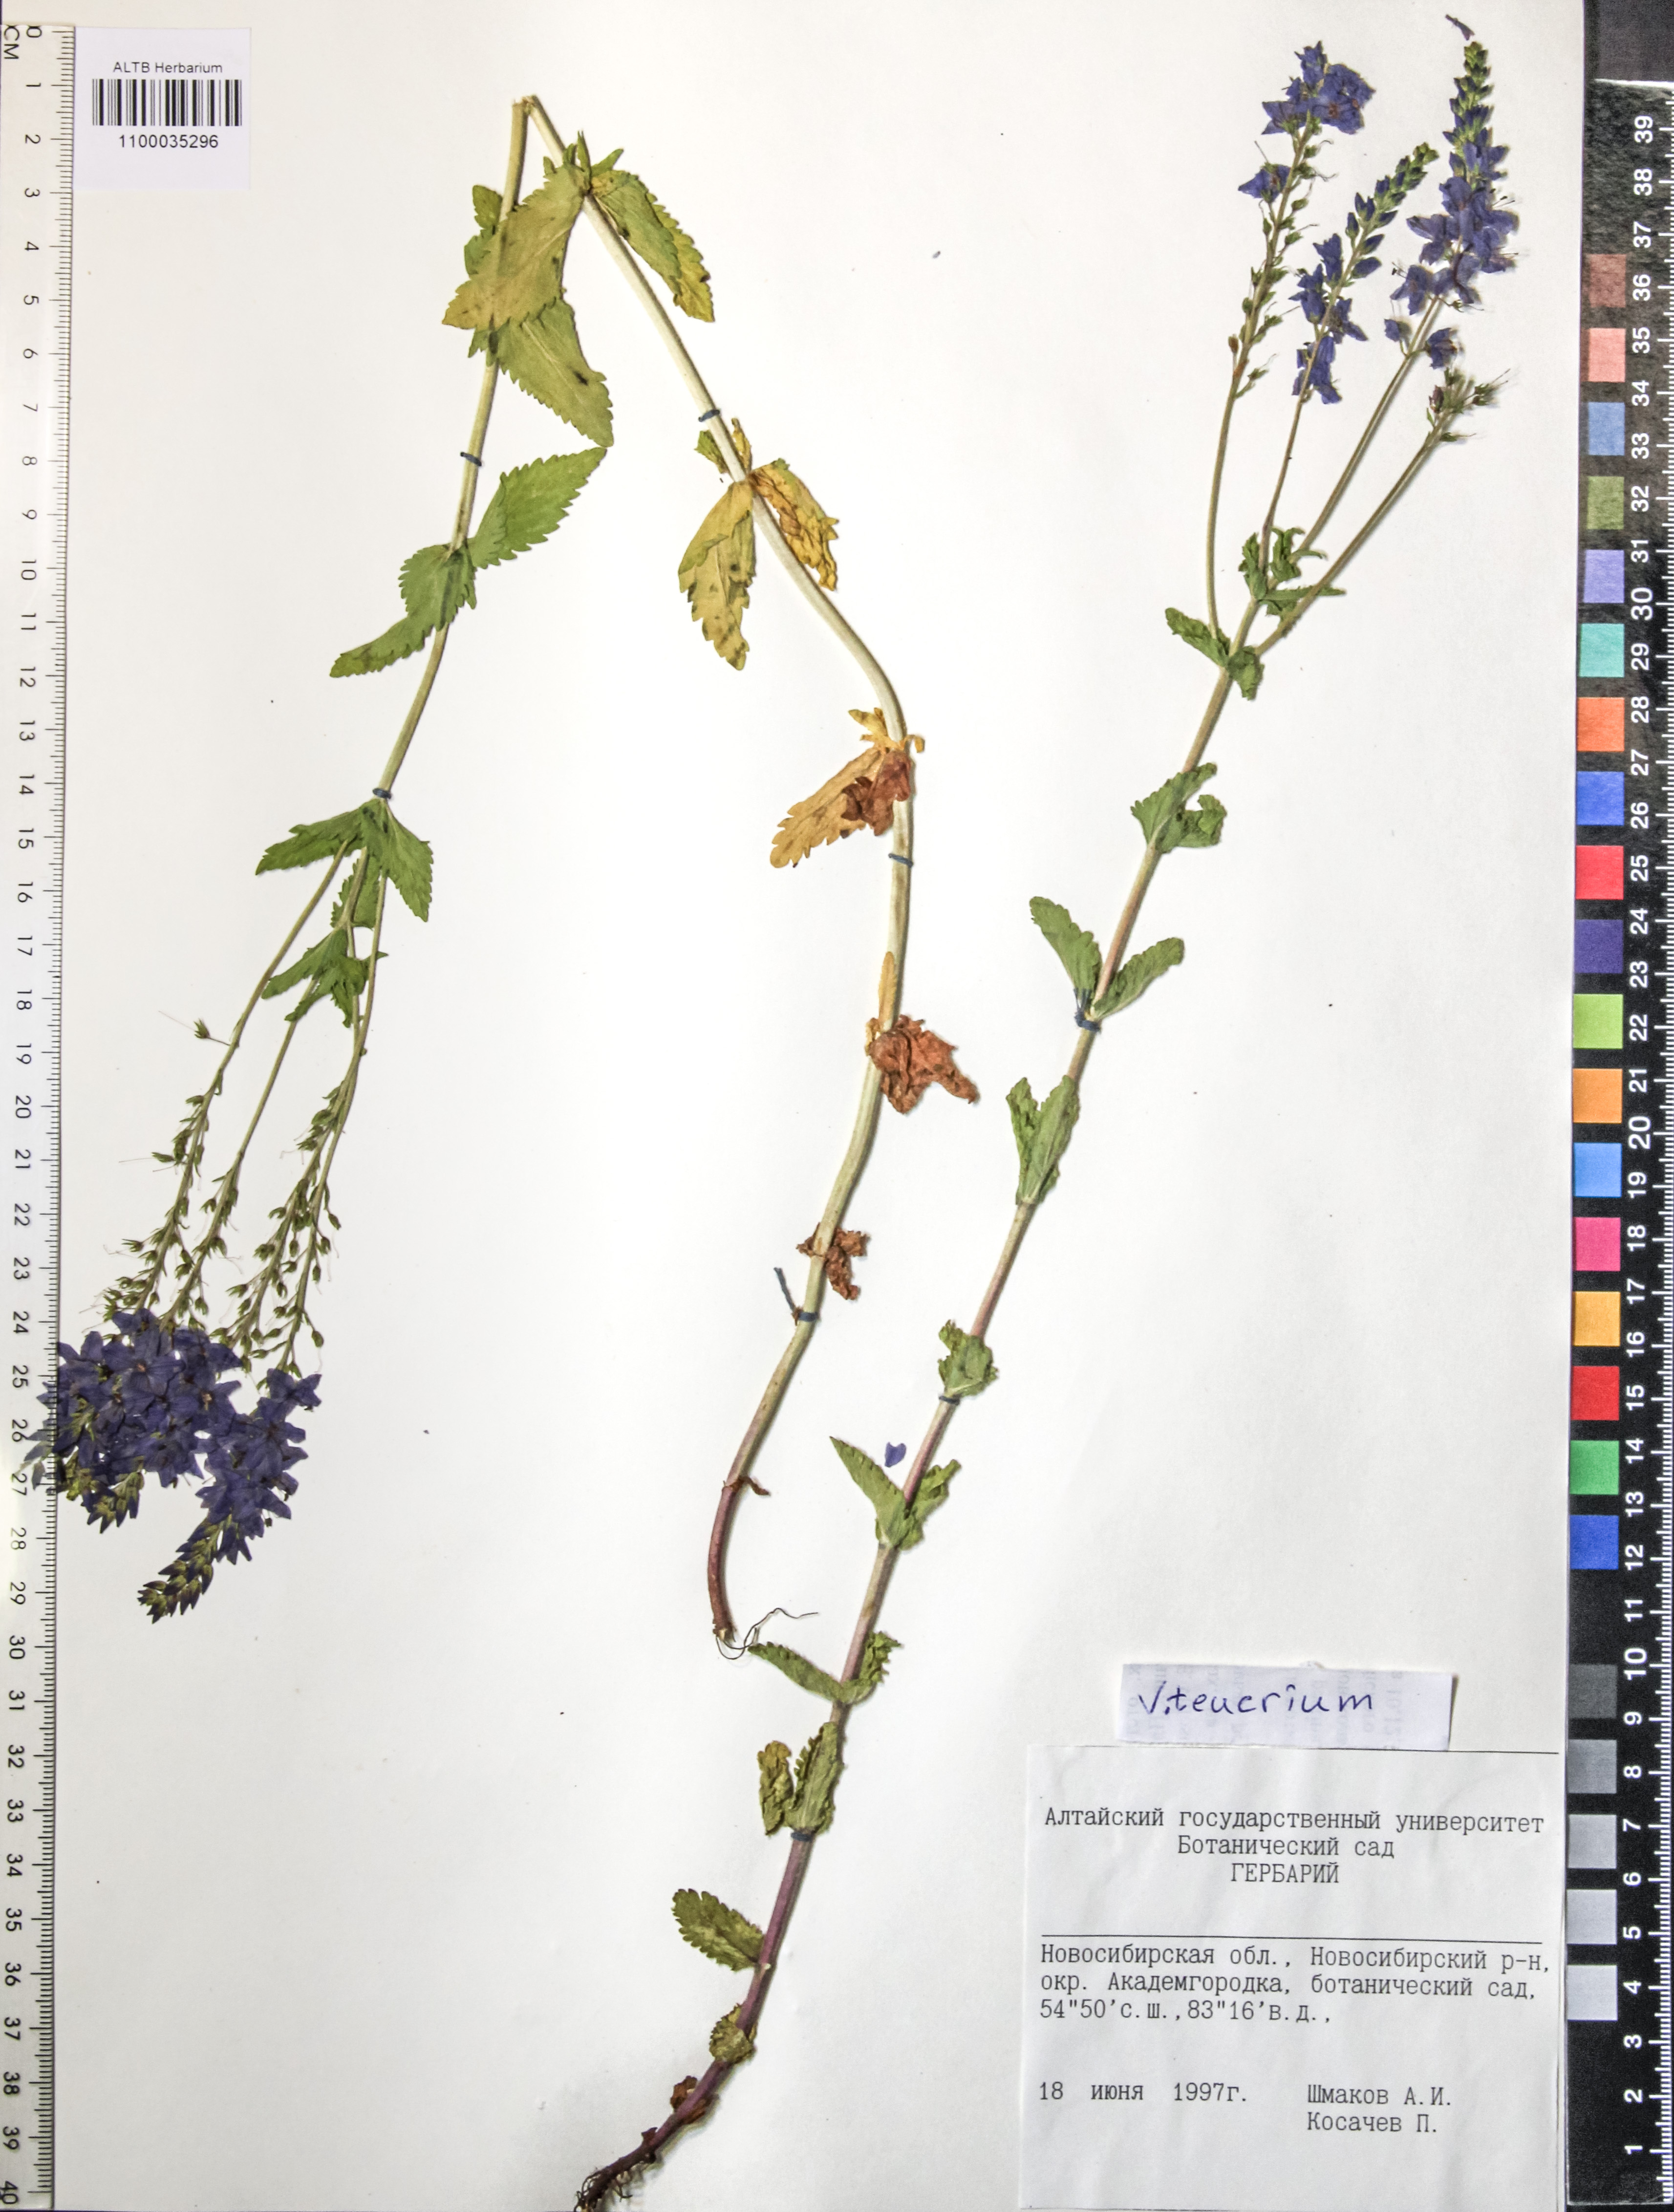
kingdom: Plantae
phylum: Tracheophyta
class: Magnoliopsida
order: Lamiales
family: Plantaginaceae
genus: Veronica
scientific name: Veronica teucrium
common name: Large speedwell
